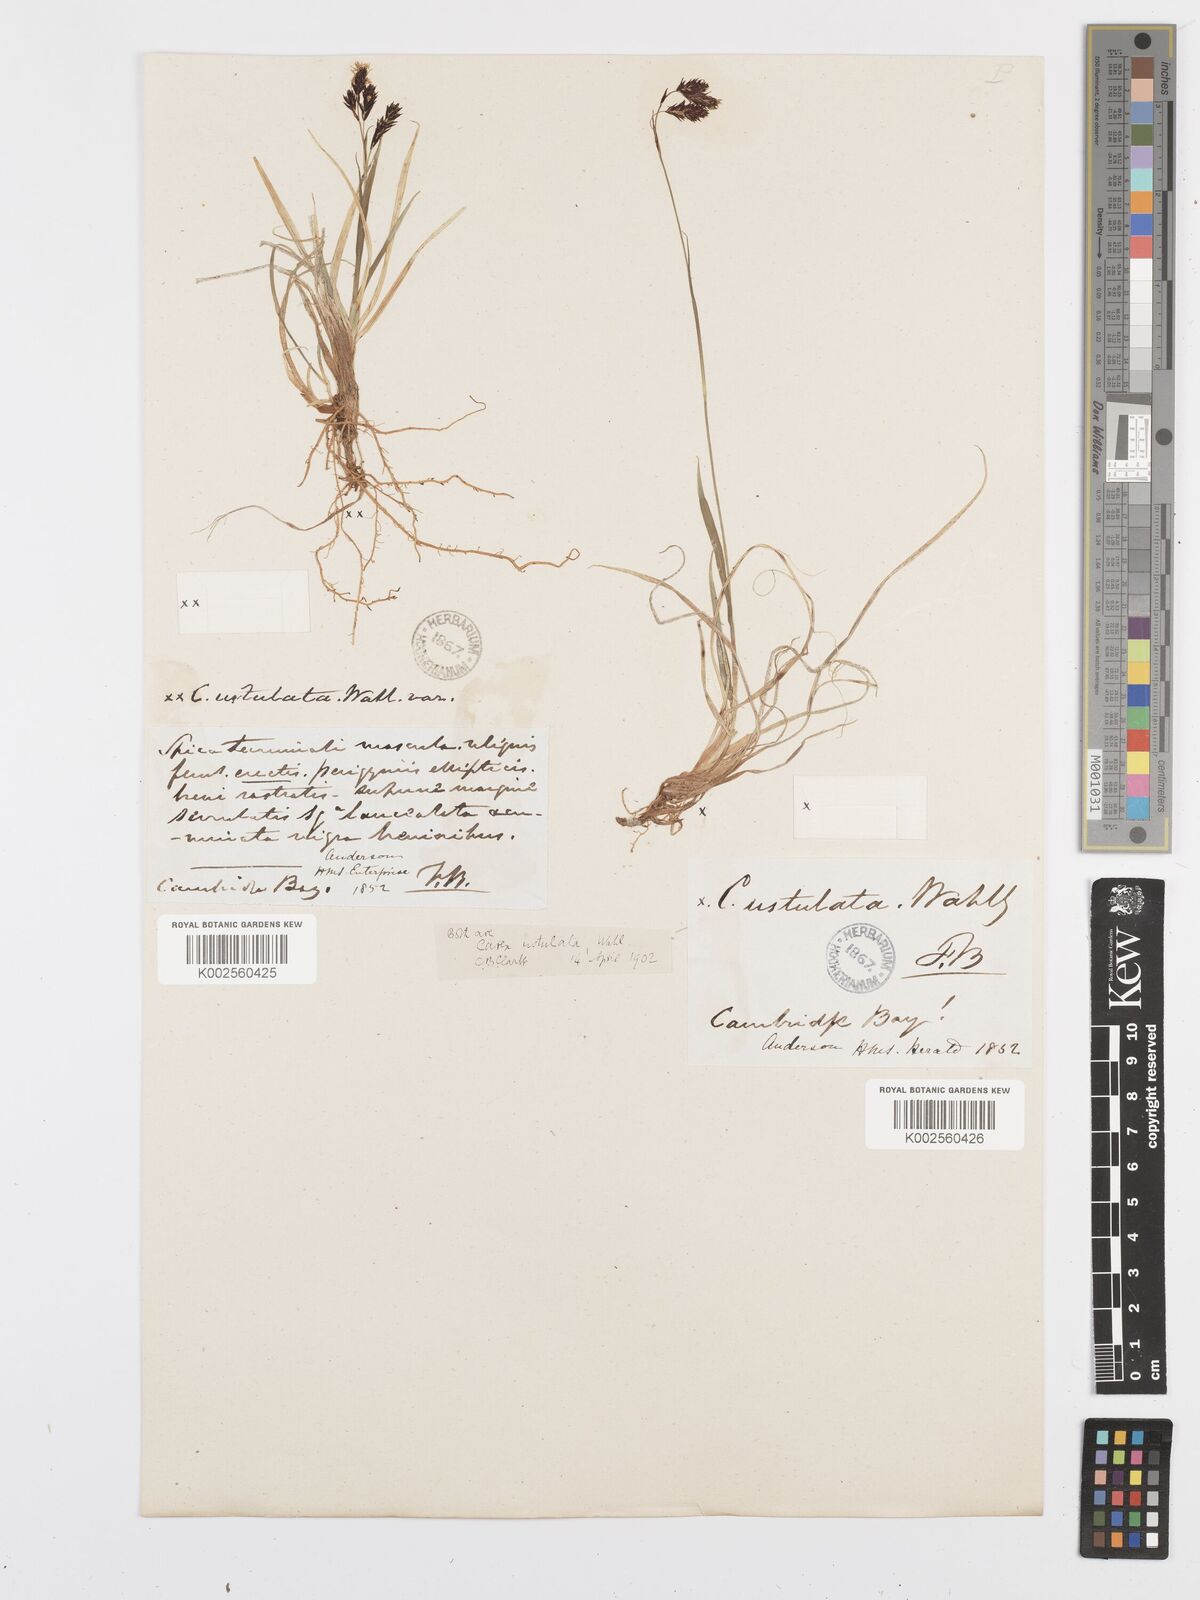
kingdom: Plantae
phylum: Tracheophyta
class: Liliopsida
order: Poales
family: Cyperaceae
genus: Carex
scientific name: Carex atrofusca
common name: Scorched alpine-sedge
